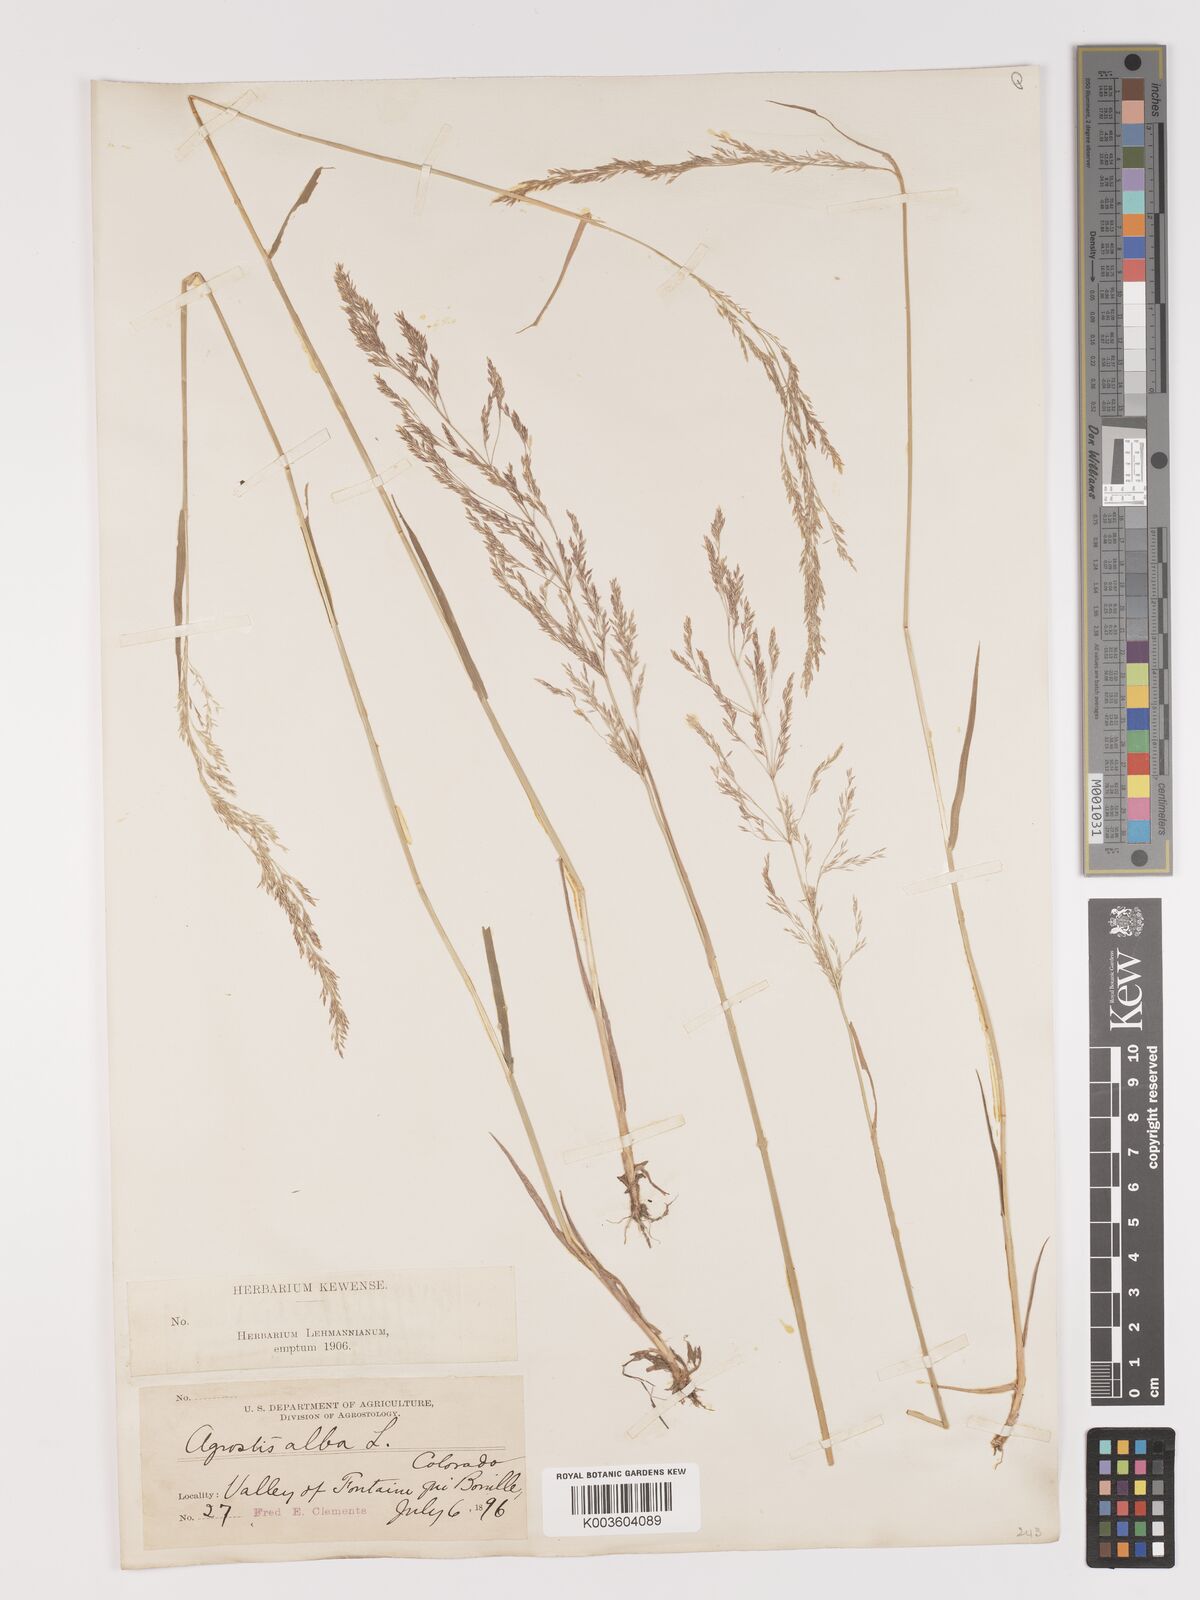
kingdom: Plantae
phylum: Tracheophyta
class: Liliopsida
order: Poales
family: Poaceae
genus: Agrostis
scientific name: Agrostis gigantea
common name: Black bent
